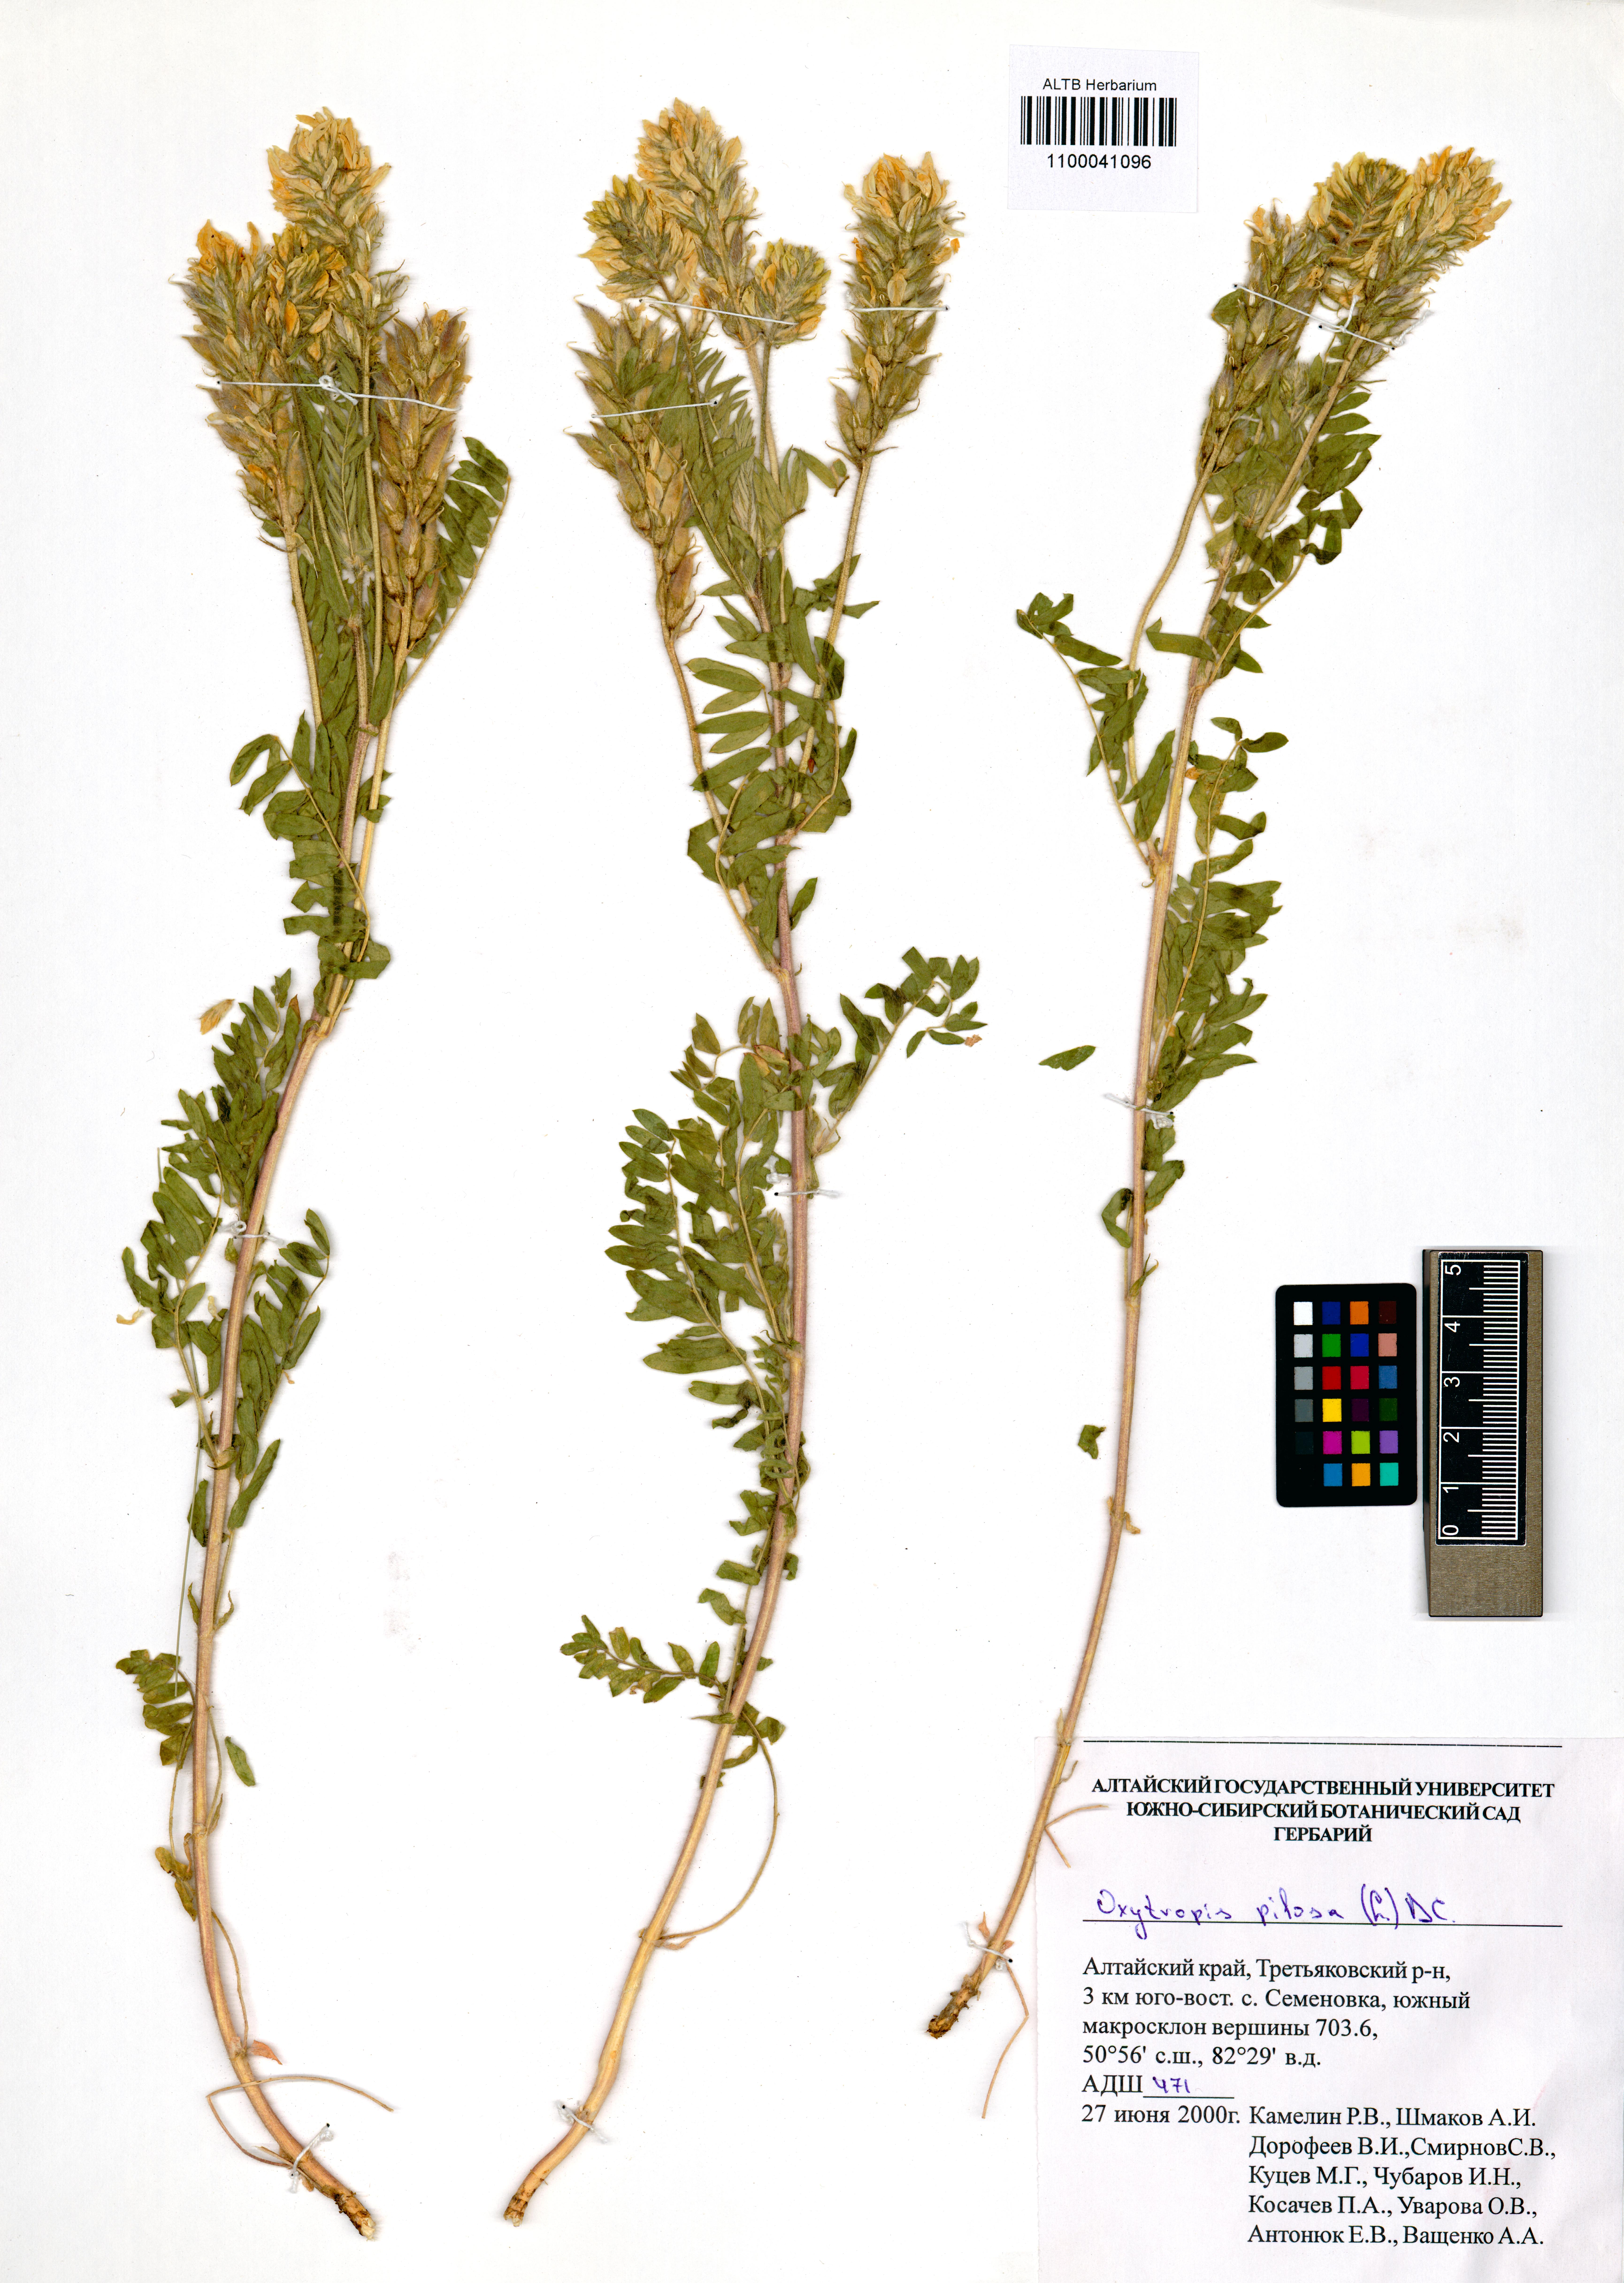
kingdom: Plantae
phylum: Tracheophyta
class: Magnoliopsida
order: Fabales
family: Fabaceae
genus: Oxytropis
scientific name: Oxytropis pilosa
